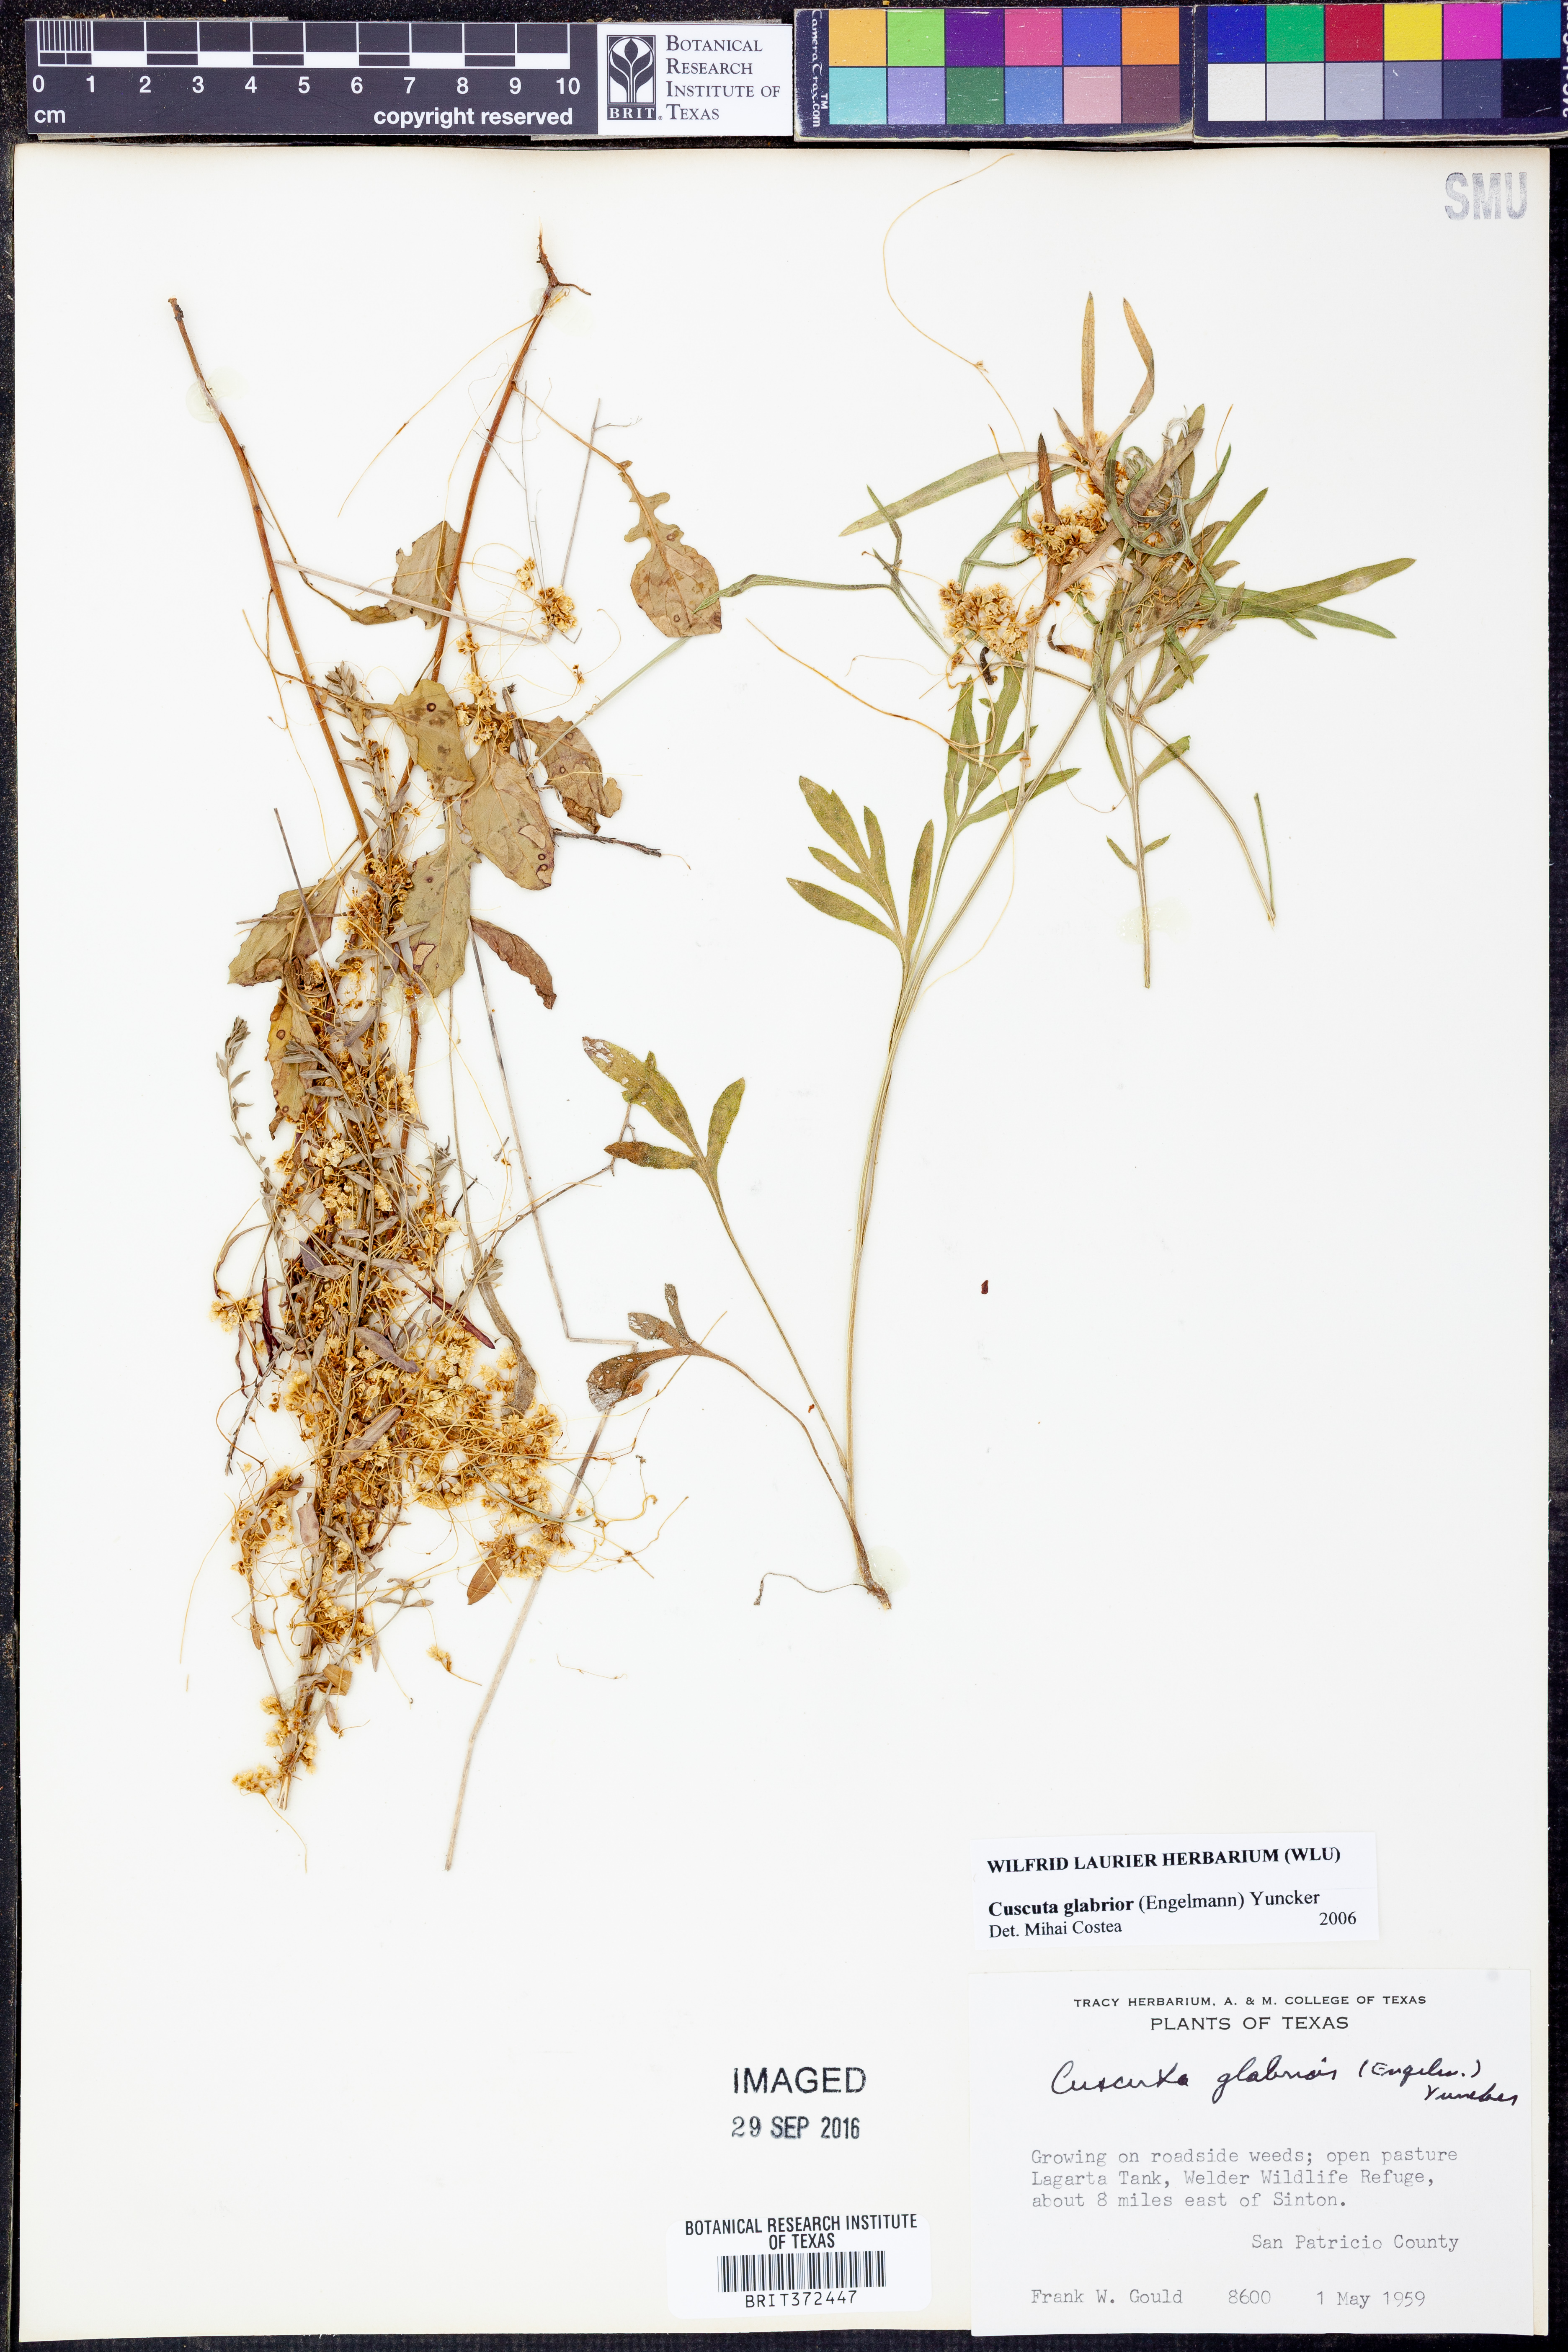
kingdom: Plantae
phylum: Tracheophyta
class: Magnoliopsida
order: Solanales
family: Convolvulaceae
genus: Cuscuta
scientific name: Cuscuta glabrior
